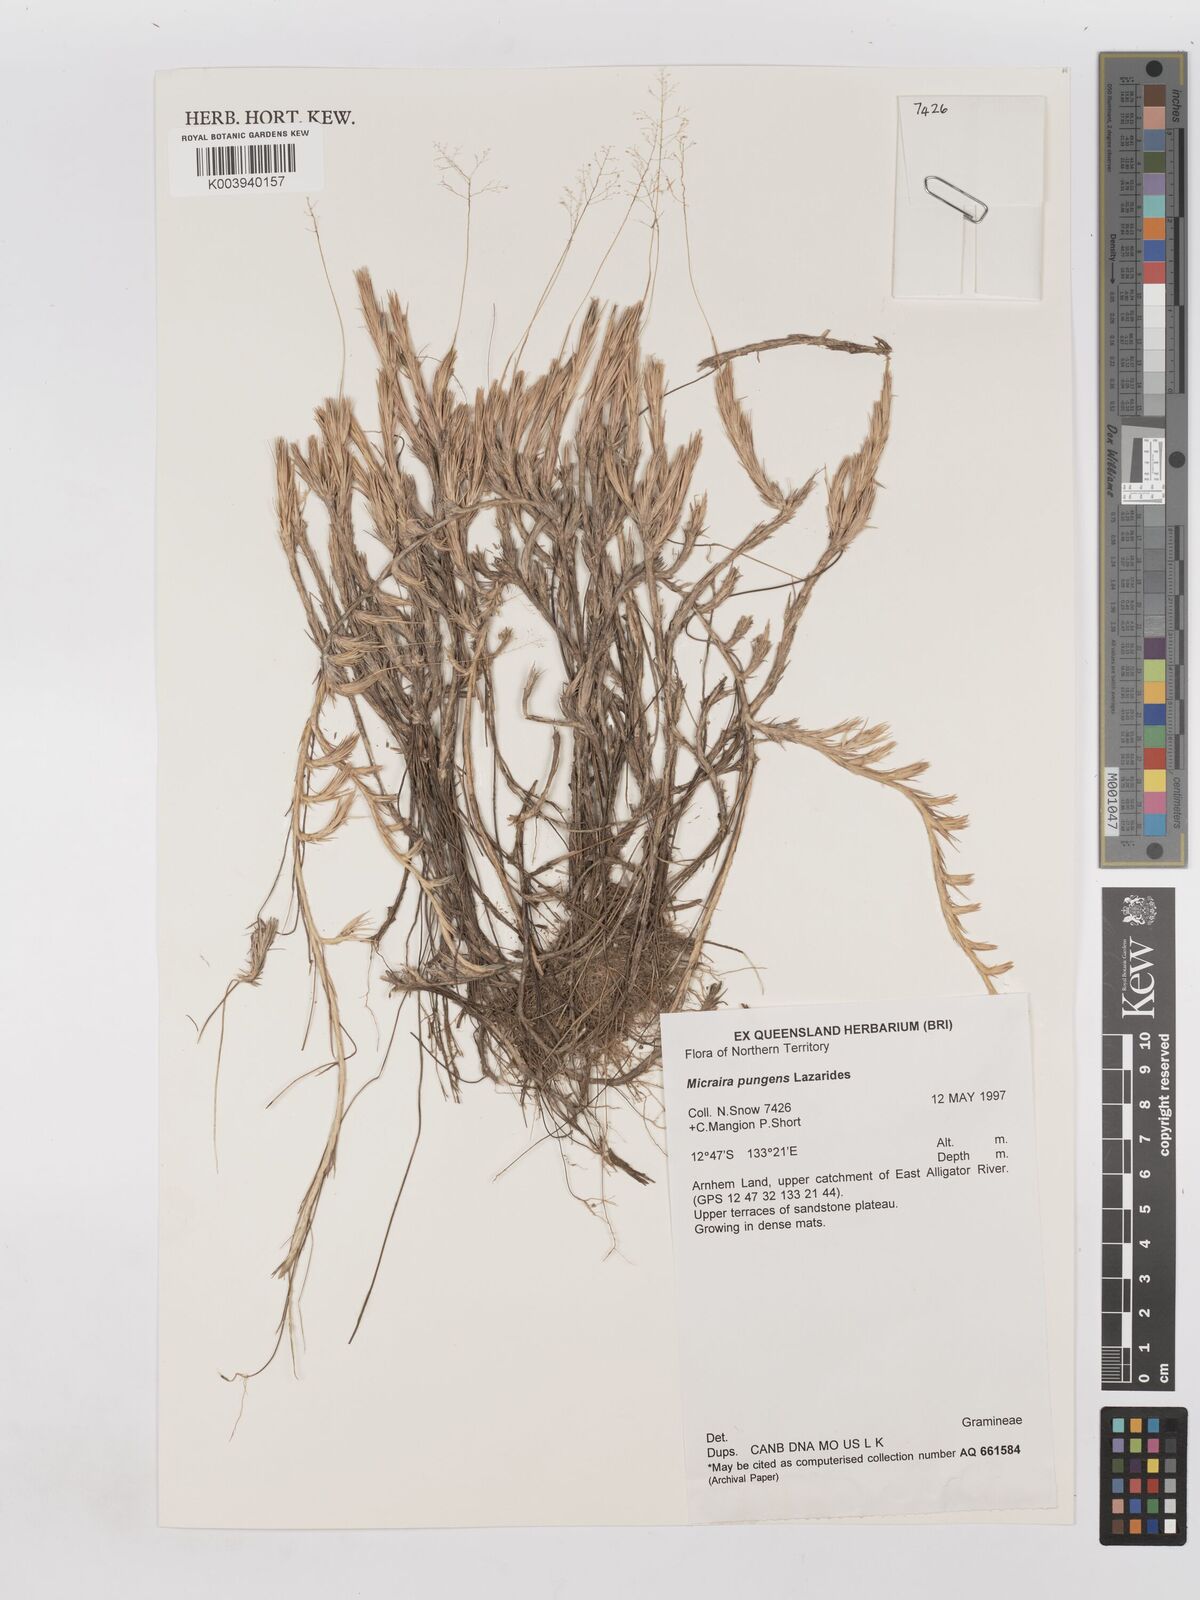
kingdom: Plantae
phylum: Tracheophyta
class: Liliopsida
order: Poales
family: Poaceae
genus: Micraira
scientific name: Micraira pungens
